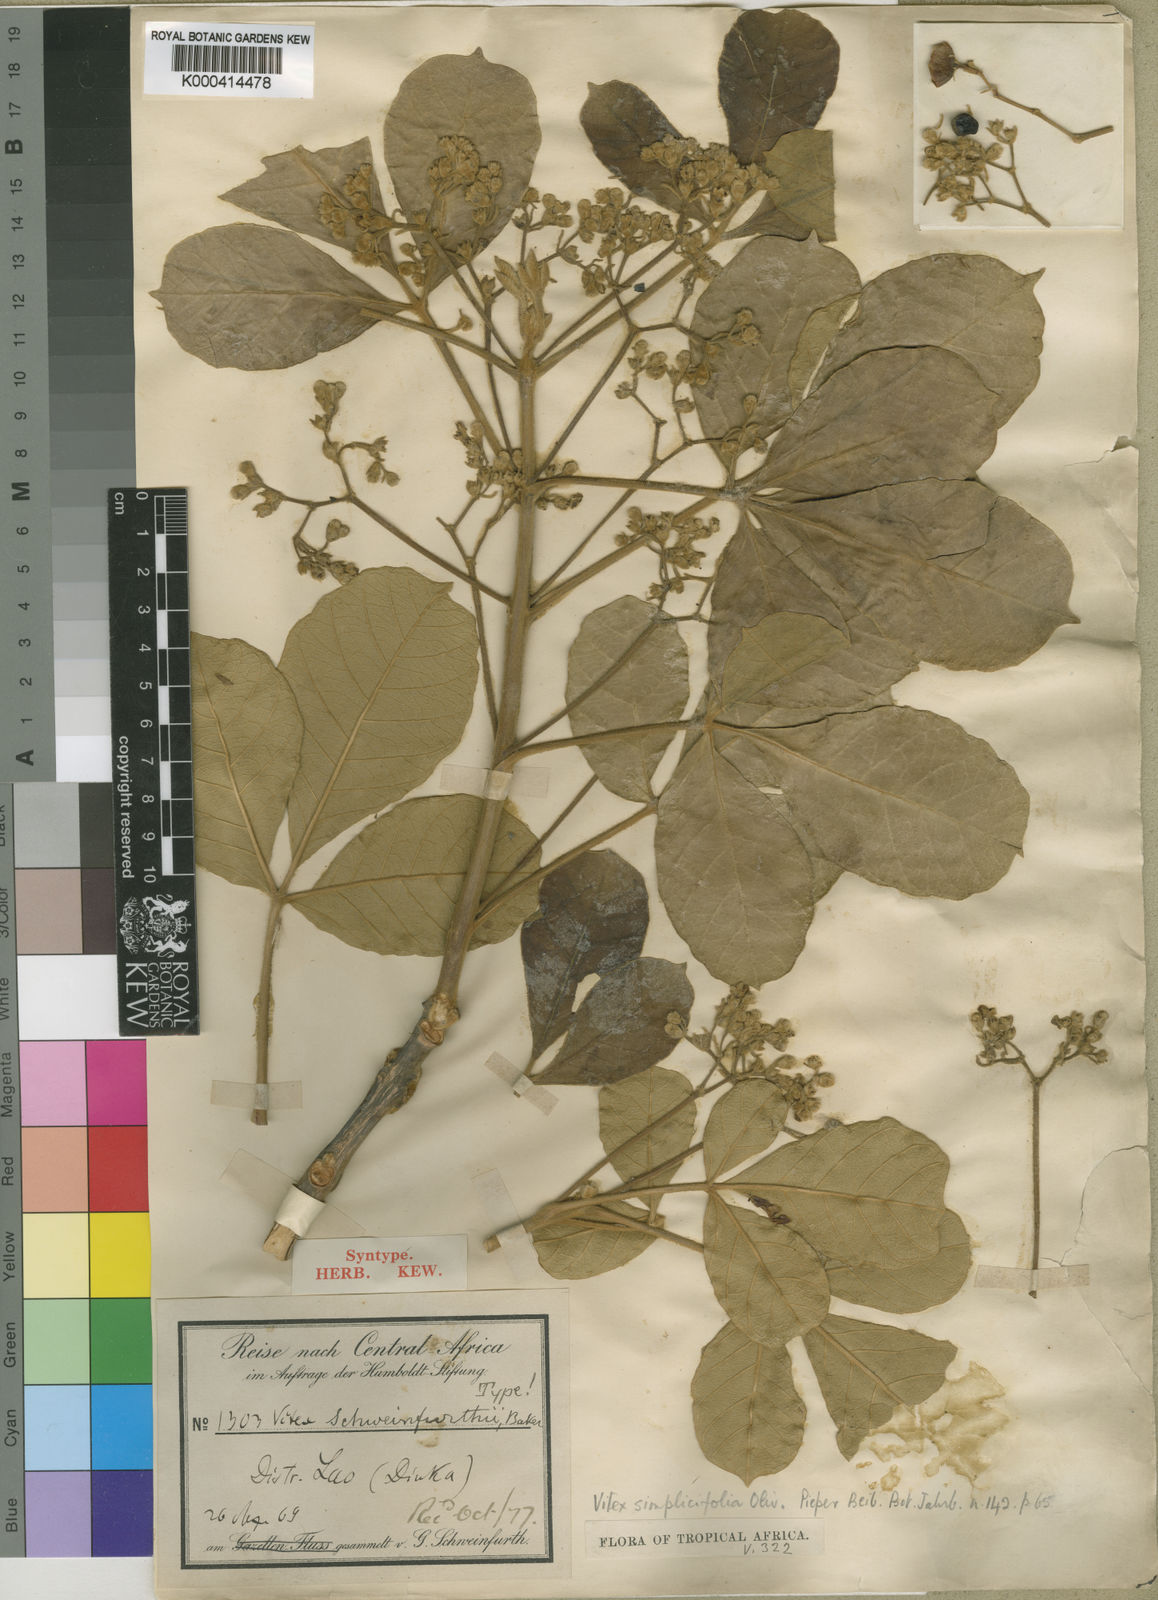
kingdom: Plantae
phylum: Tracheophyta
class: Magnoliopsida
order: Lamiales
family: Lamiaceae
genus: Vitex
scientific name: Vitex madiensis
